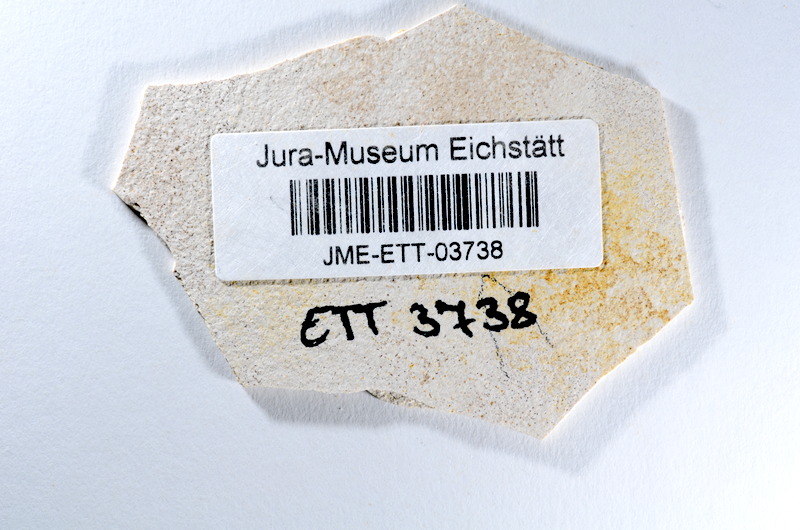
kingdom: Animalia
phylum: Chordata
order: Salmoniformes
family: Orthogonikleithridae
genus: Orthogonikleithrus
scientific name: Orthogonikleithrus hoelli
